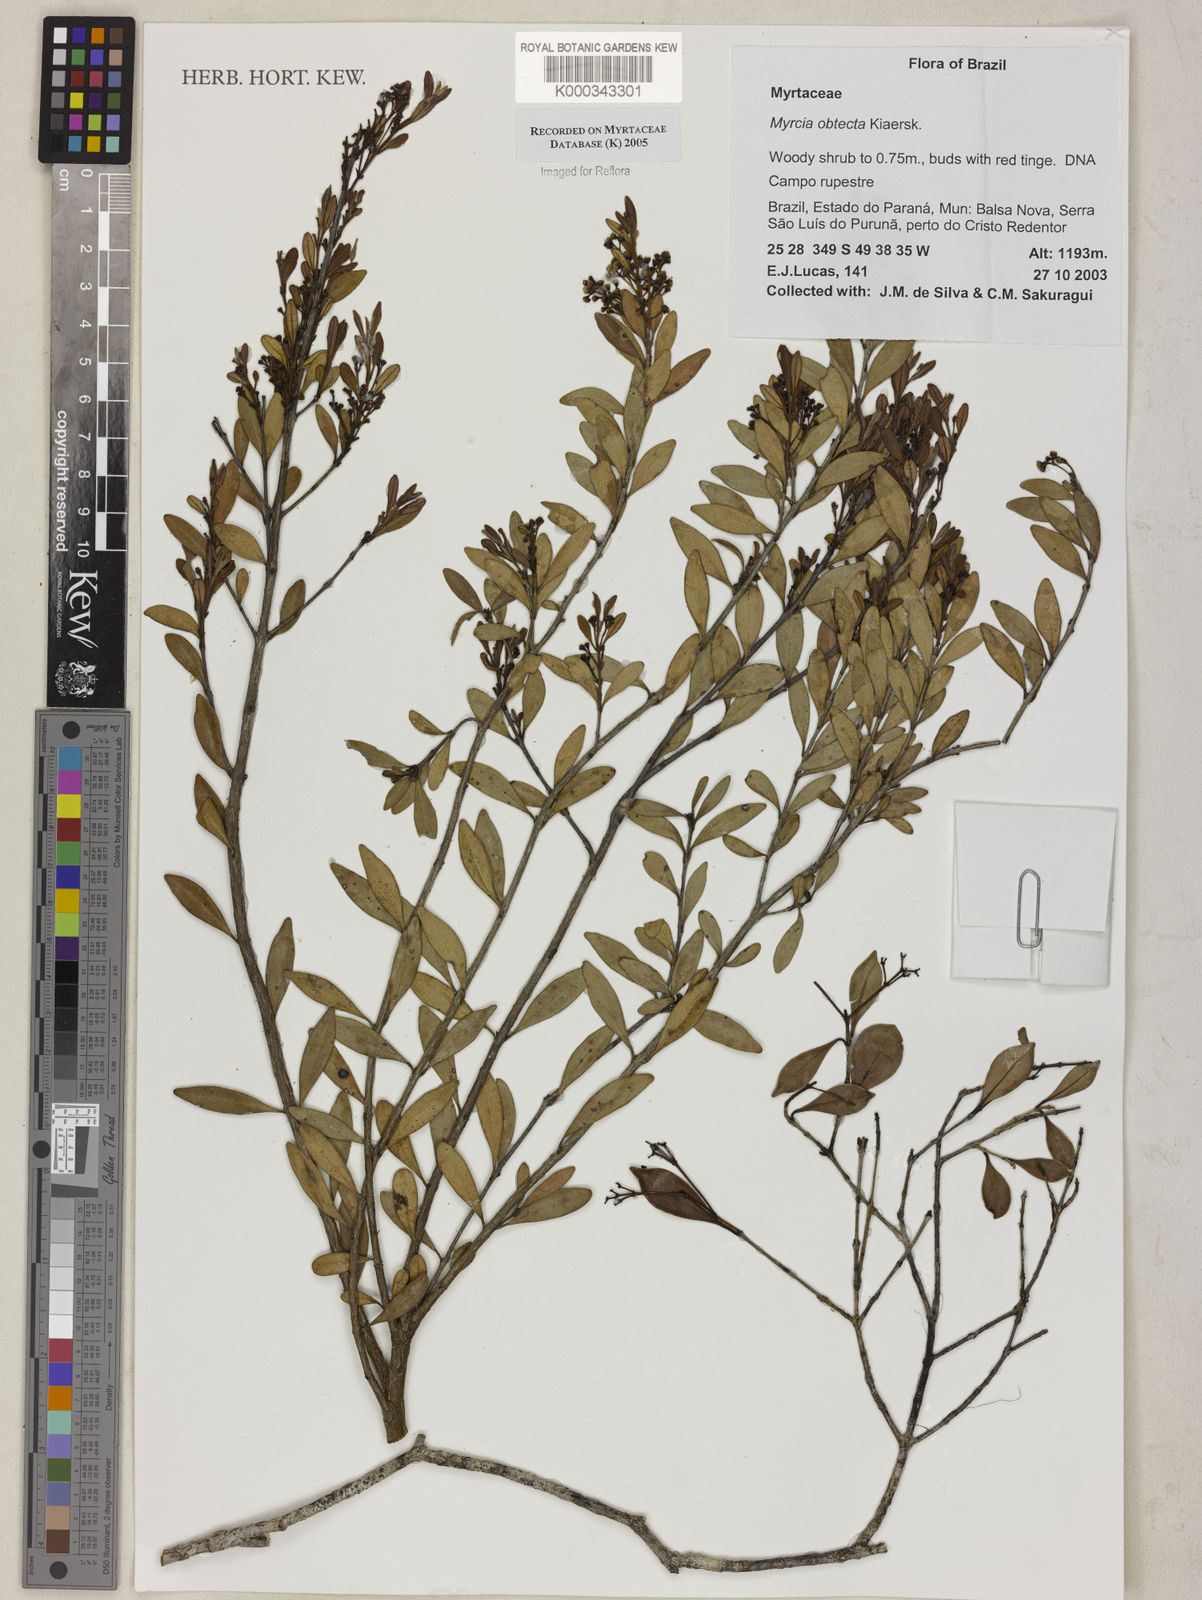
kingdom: Plantae
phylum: Tracheophyta
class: Magnoliopsida
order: Myrtales
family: Myrtaceae
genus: Myrcia
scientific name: Myrcia guianensis
